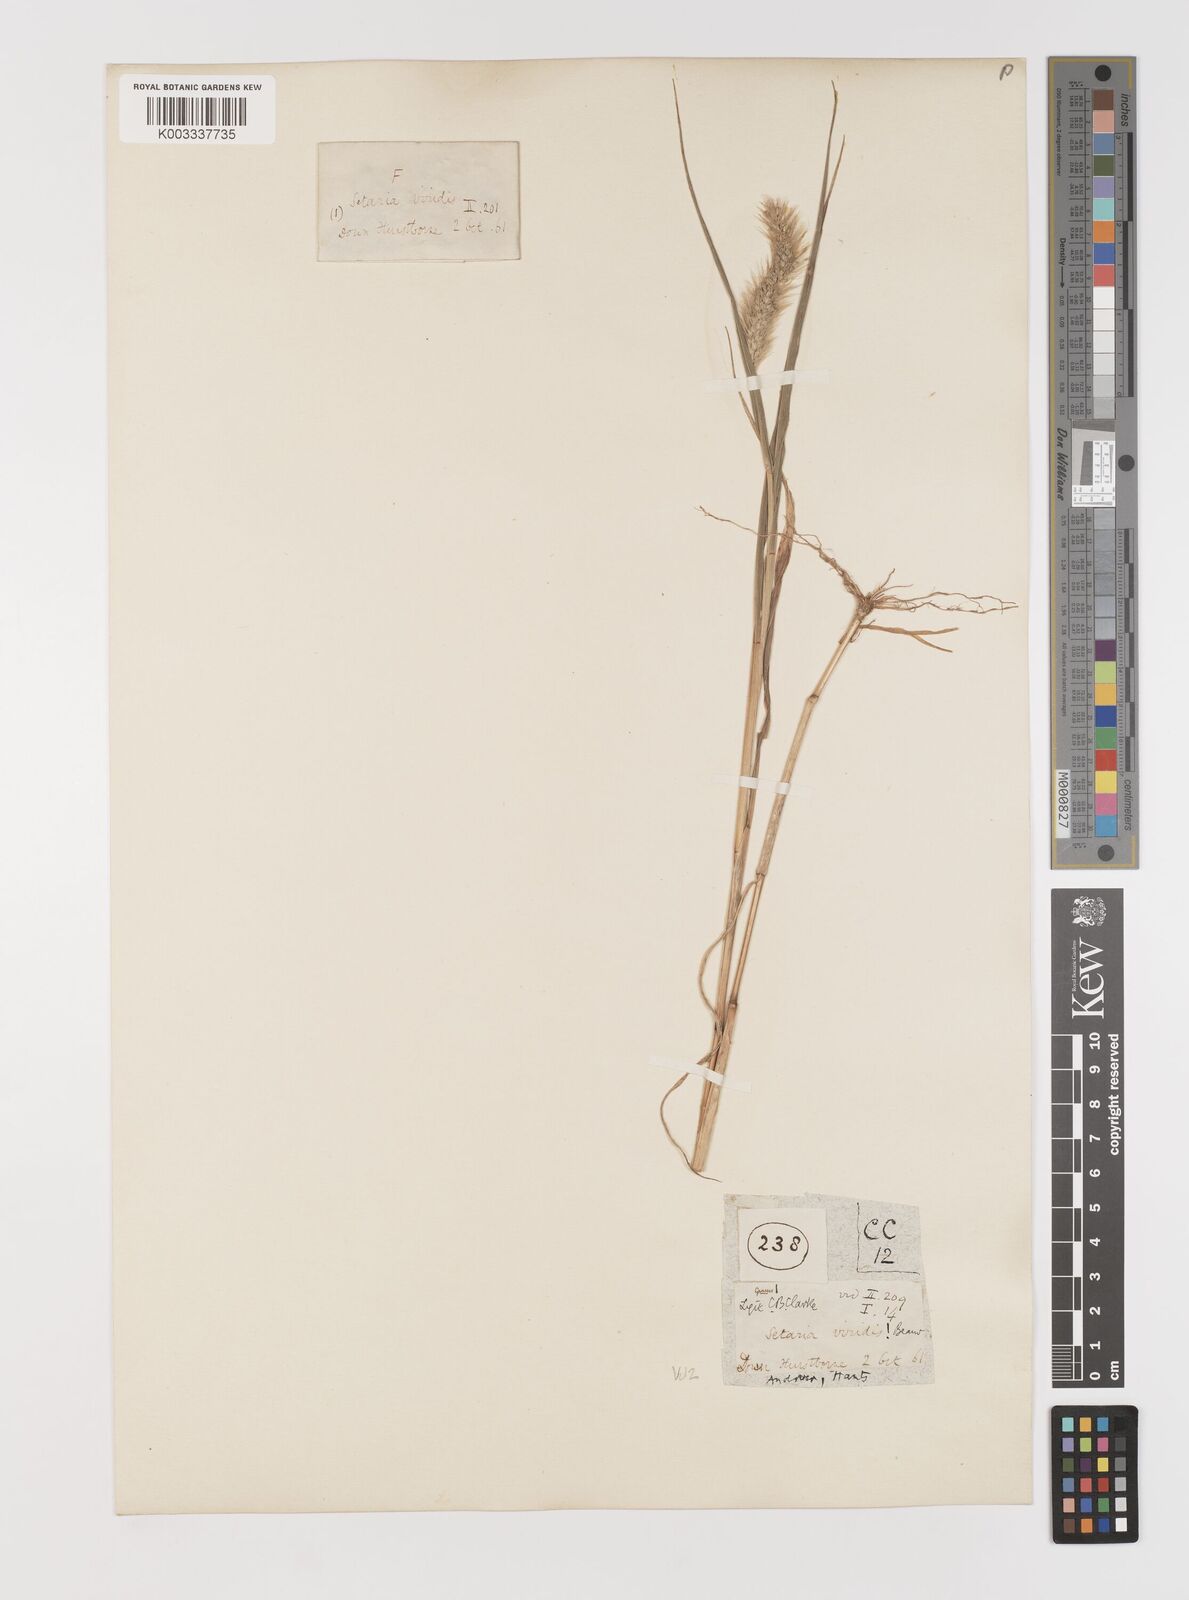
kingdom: Plantae
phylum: Tracheophyta
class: Liliopsida
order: Poales
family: Poaceae
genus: Setaria
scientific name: Setaria viridis
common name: Green bristlegrass
